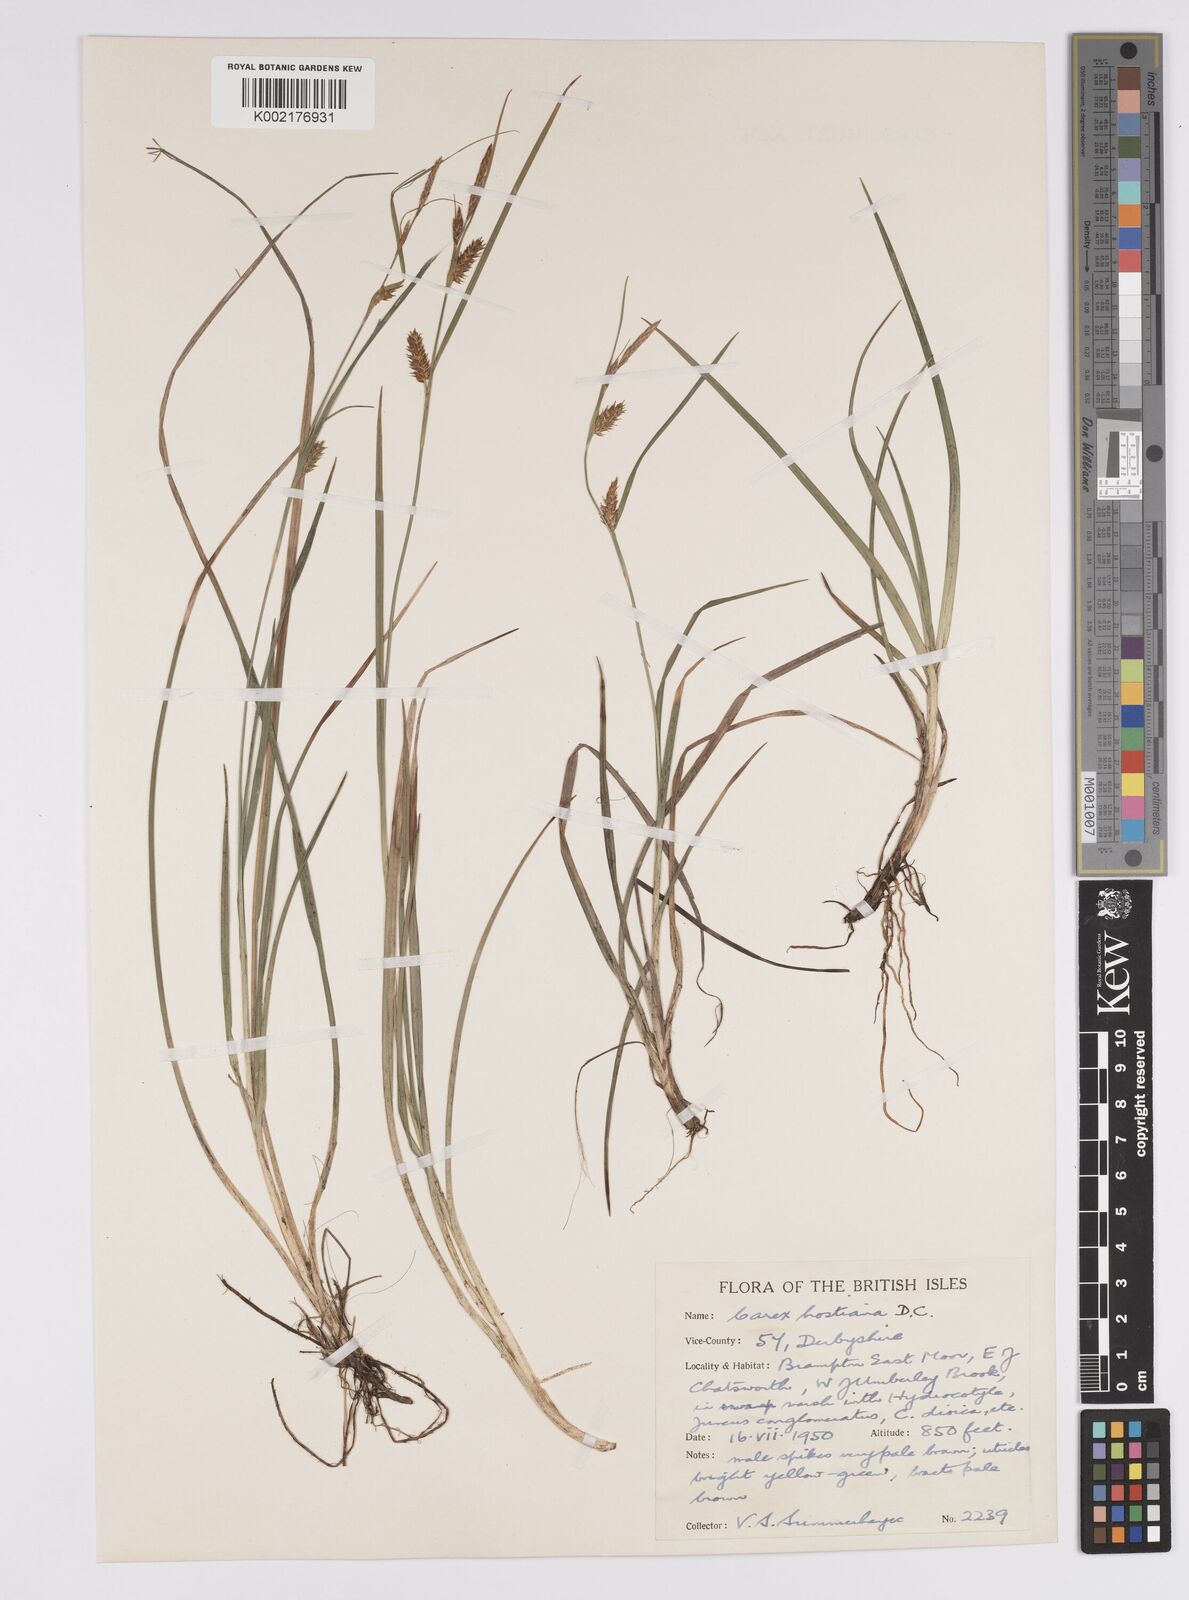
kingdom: Plantae
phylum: Tracheophyta
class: Liliopsida
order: Poales
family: Cyperaceae
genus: Carex
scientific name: Carex hostiana
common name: Tawny sedge
